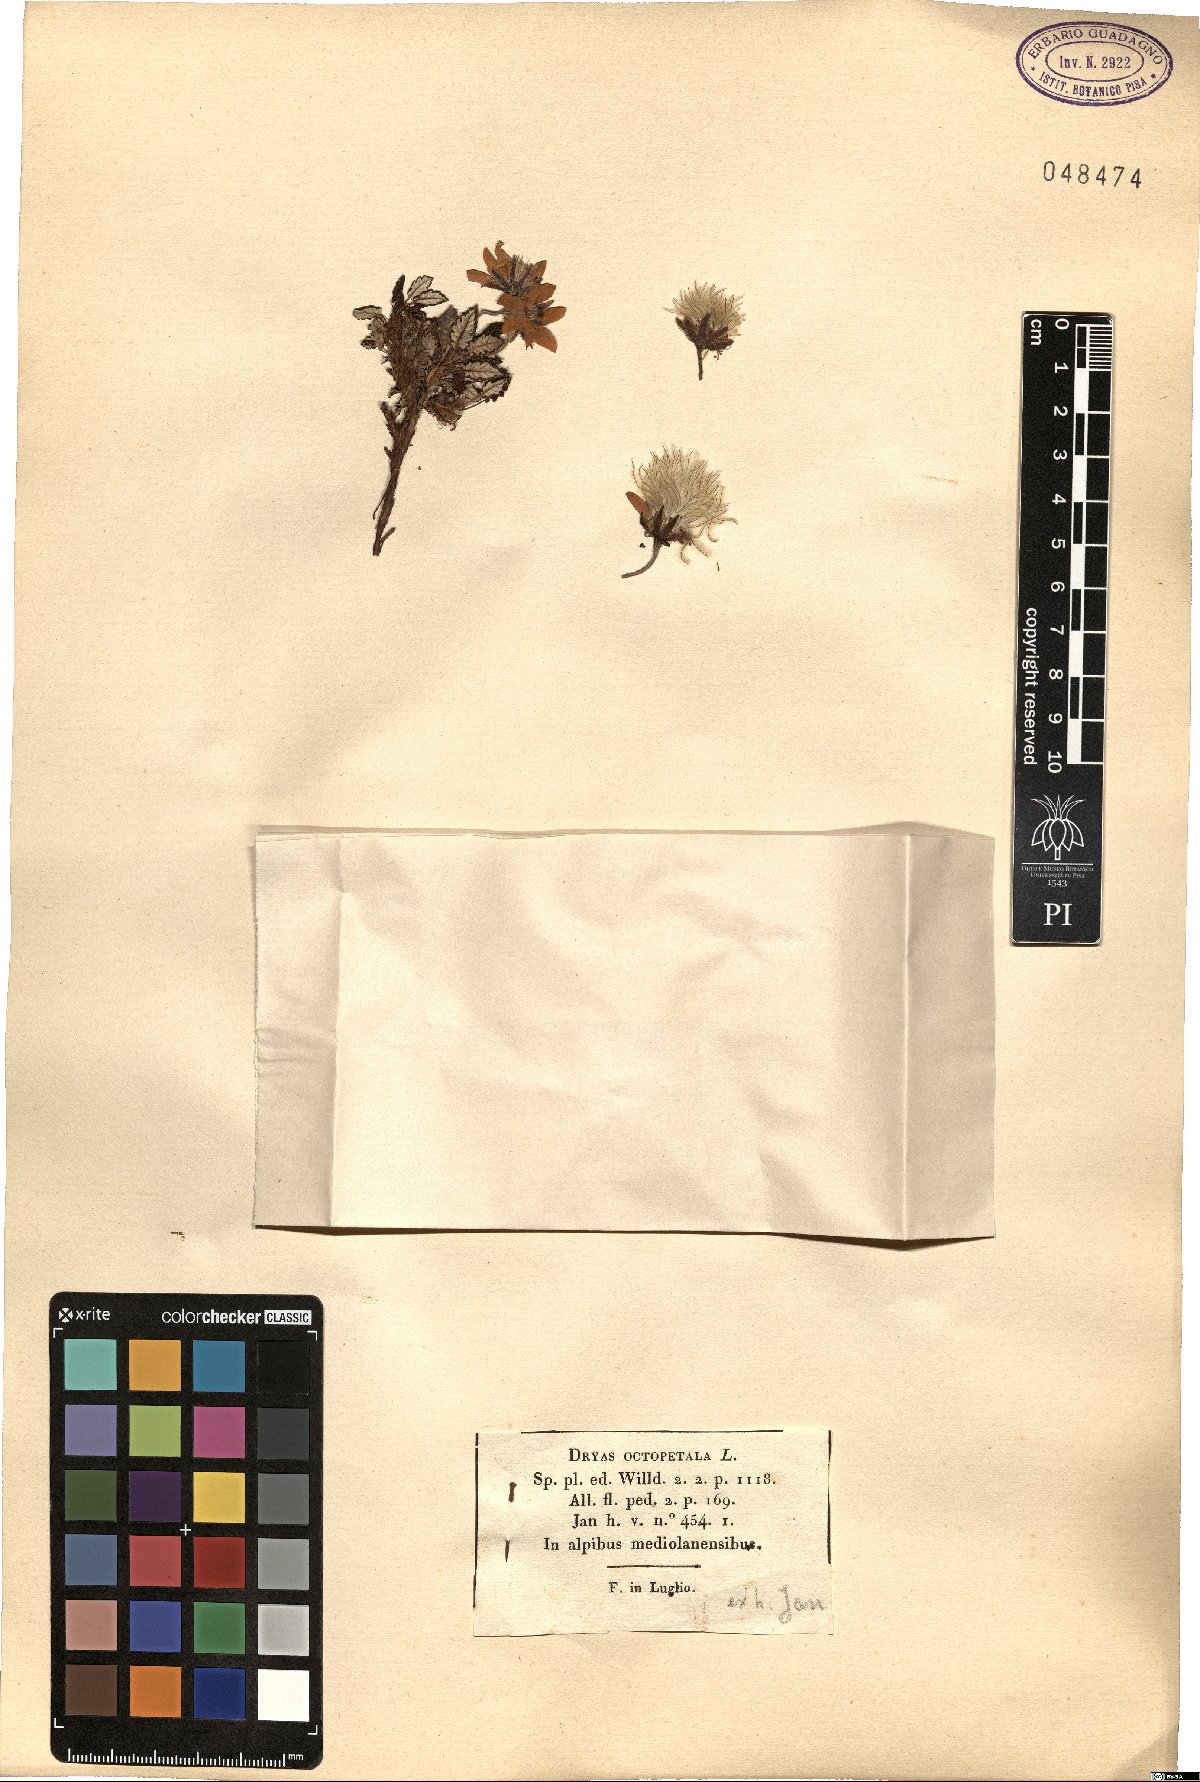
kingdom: Plantae
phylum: Tracheophyta
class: Magnoliopsida
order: Rosales
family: Rosaceae
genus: Dryas
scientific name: Dryas octopetala
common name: Eight-petal mountain-avens
